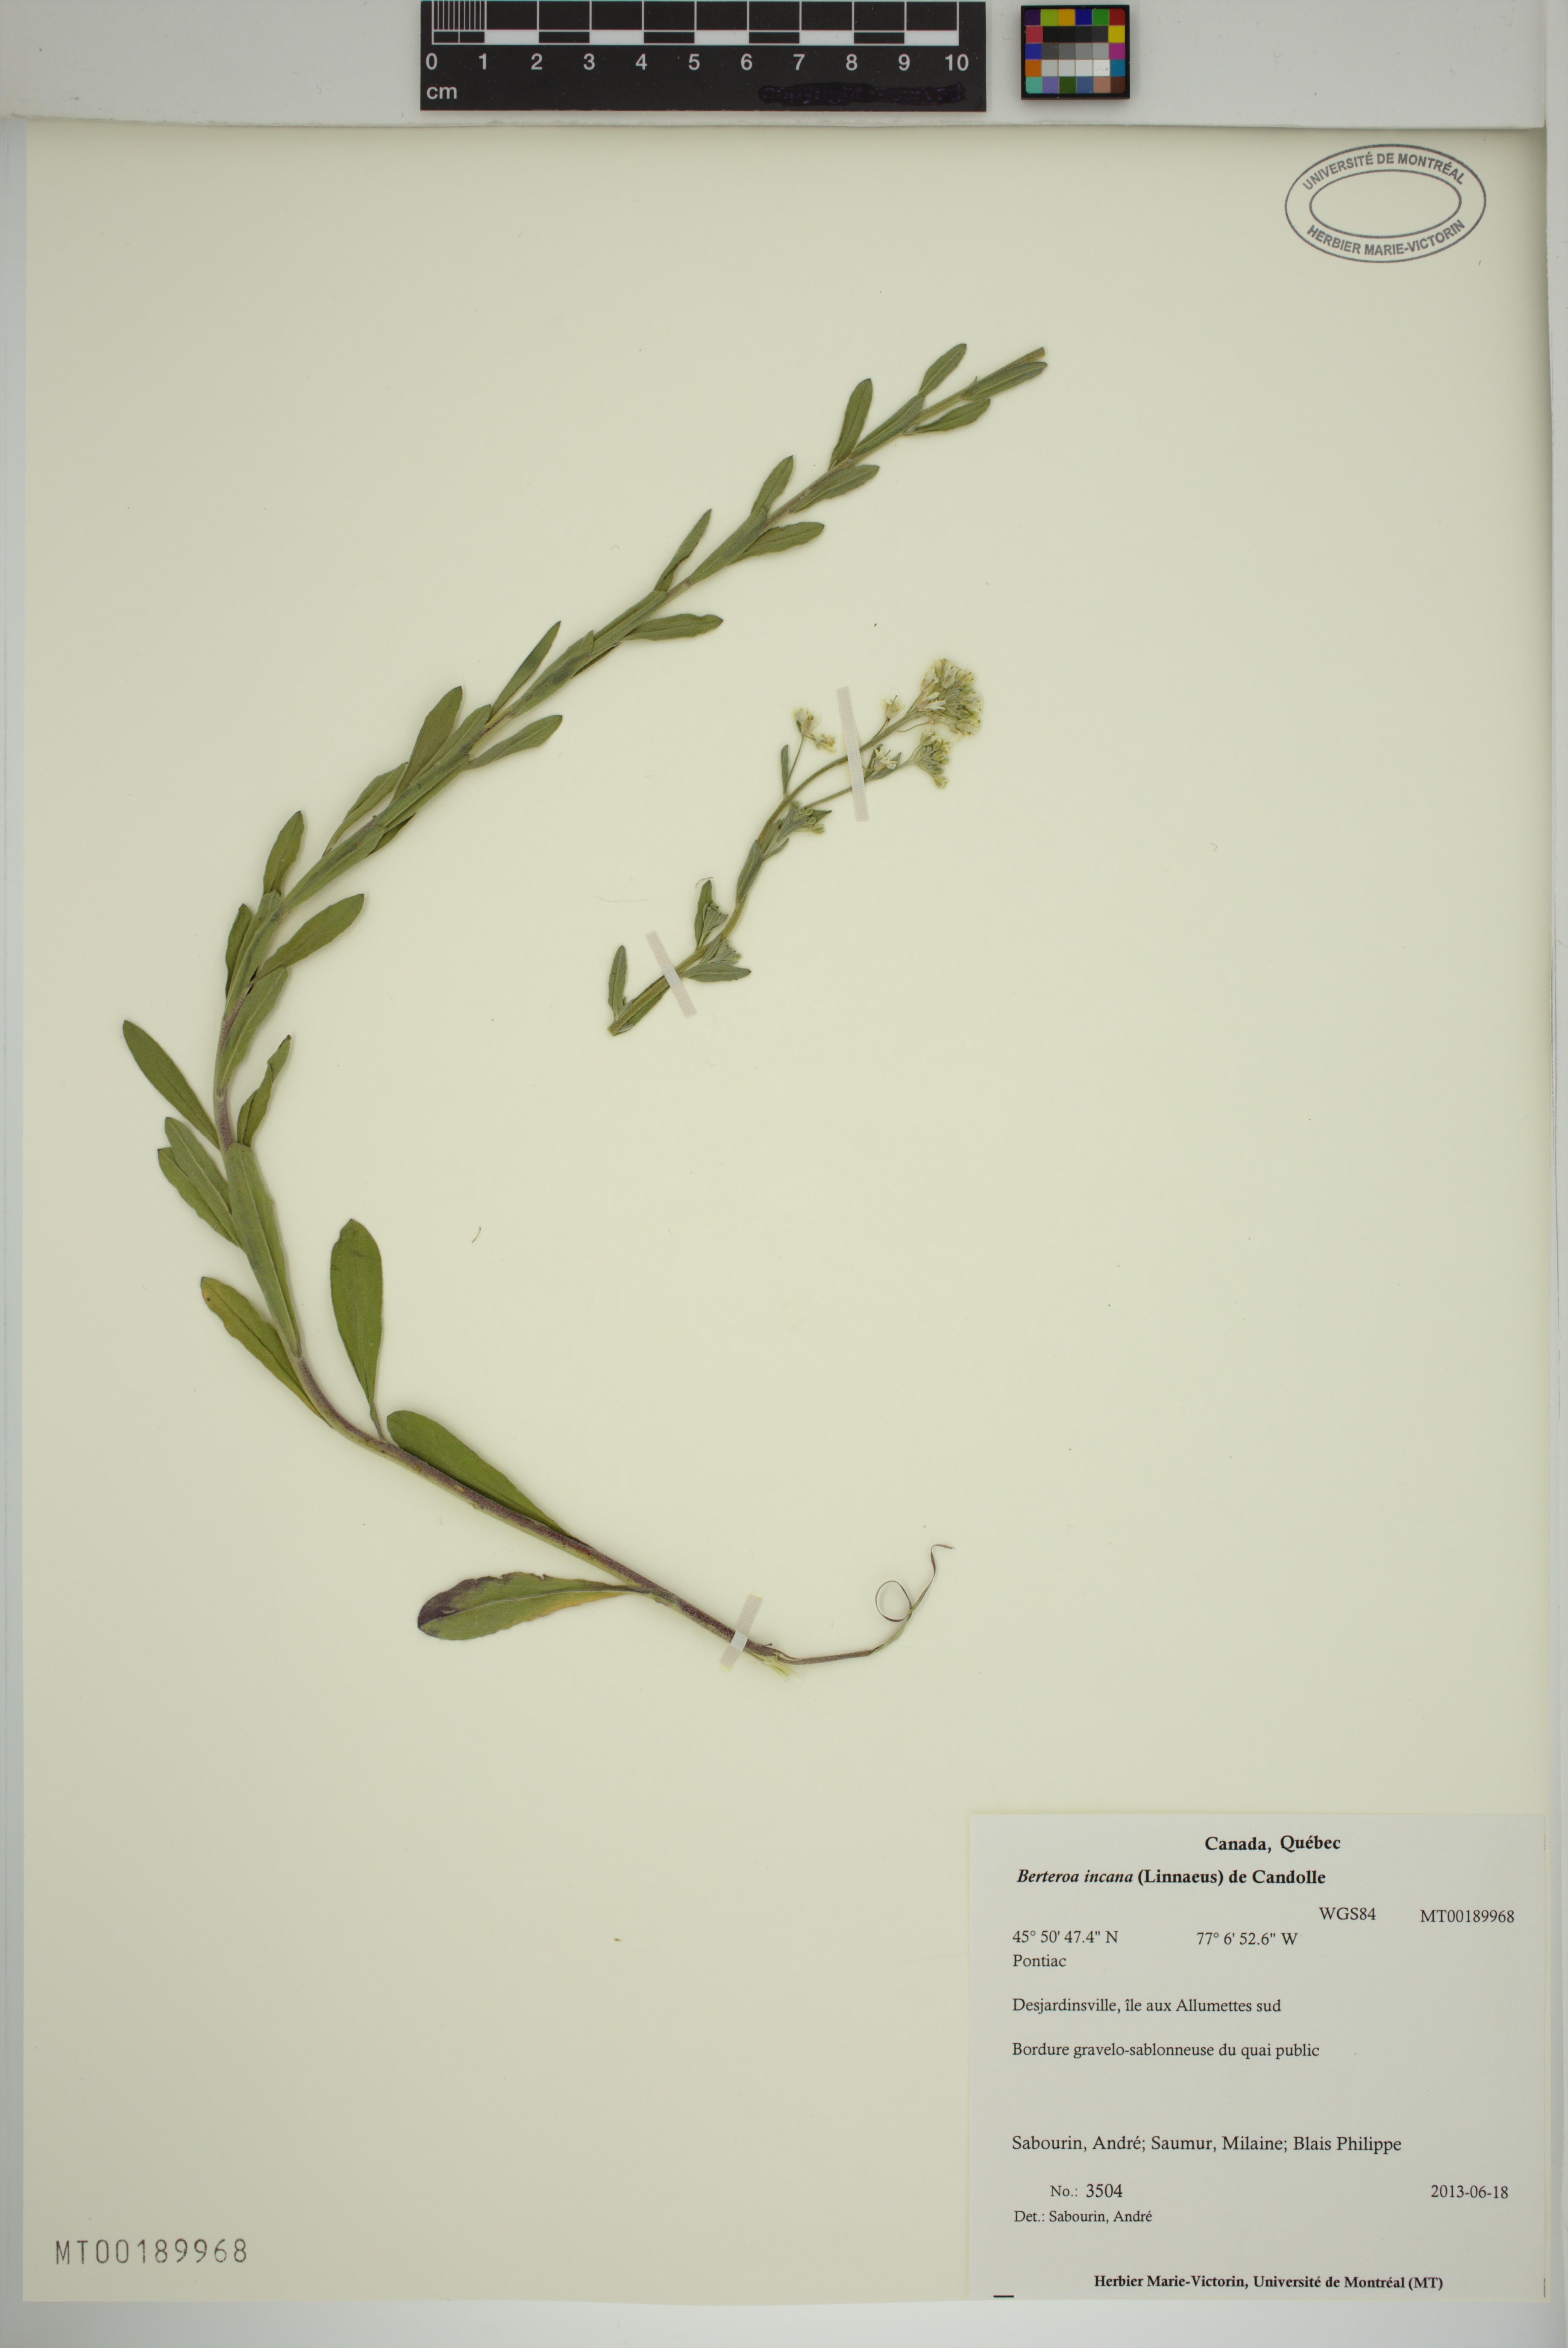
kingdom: Plantae
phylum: Tracheophyta
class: Magnoliopsida
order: Brassicales
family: Brassicaceae
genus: Berteroa
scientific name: Berteroa incana
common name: Hoary alison
